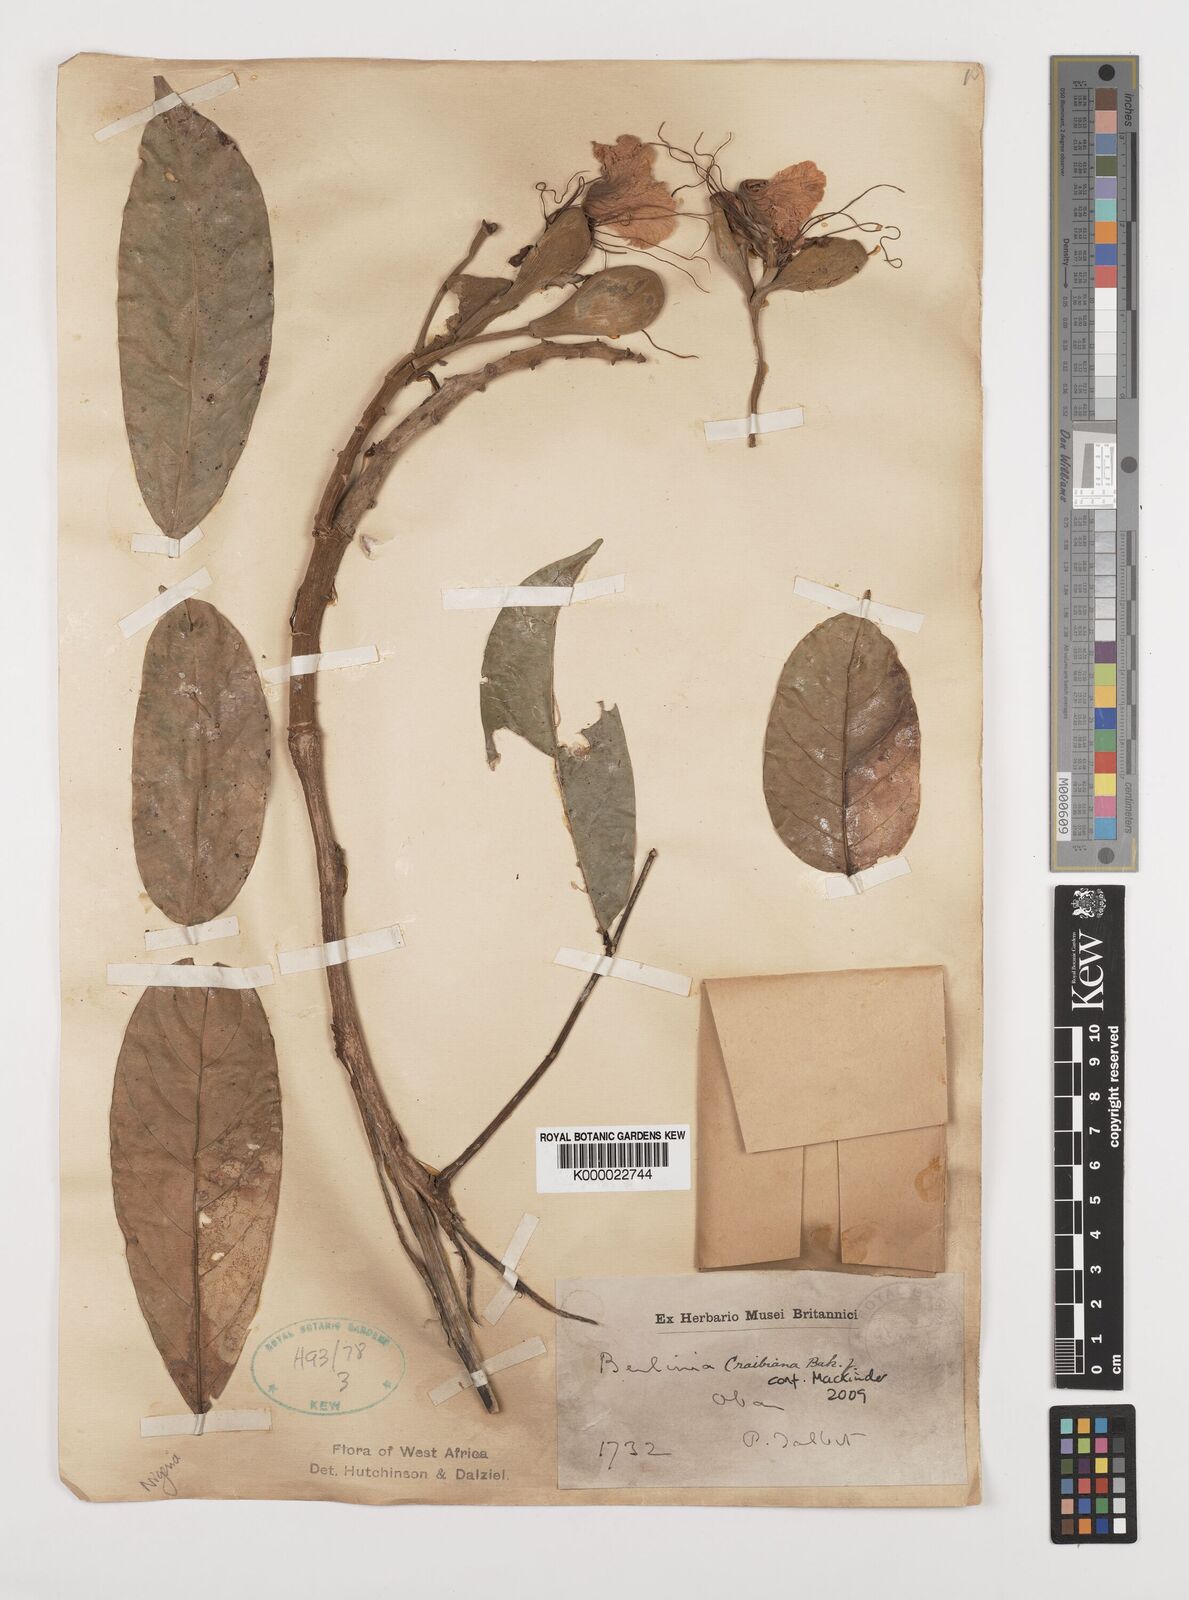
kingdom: Plantae
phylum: Tracheophyta
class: Magnoliopsida
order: Fabales
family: Fabaceae
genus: Berlinia
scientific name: Berlinia confusa
